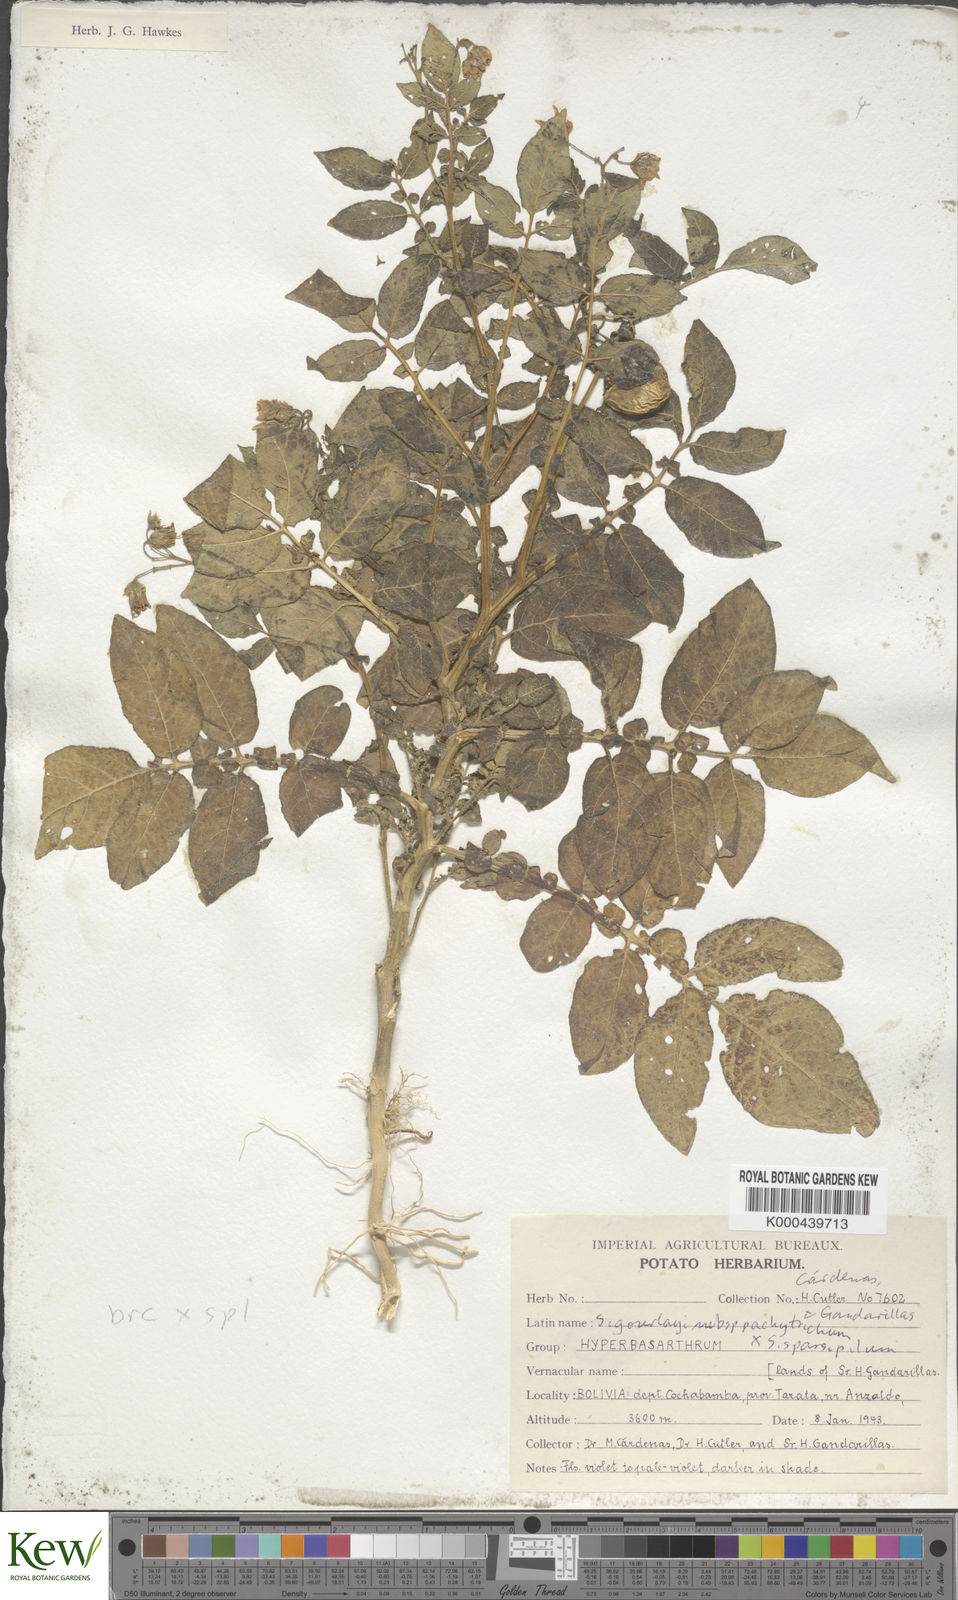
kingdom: Plantae
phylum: Tracheophyta
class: Magnoliopsida
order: Solanales
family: Solanaceae
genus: Solanum
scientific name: Solanum brevicaule
